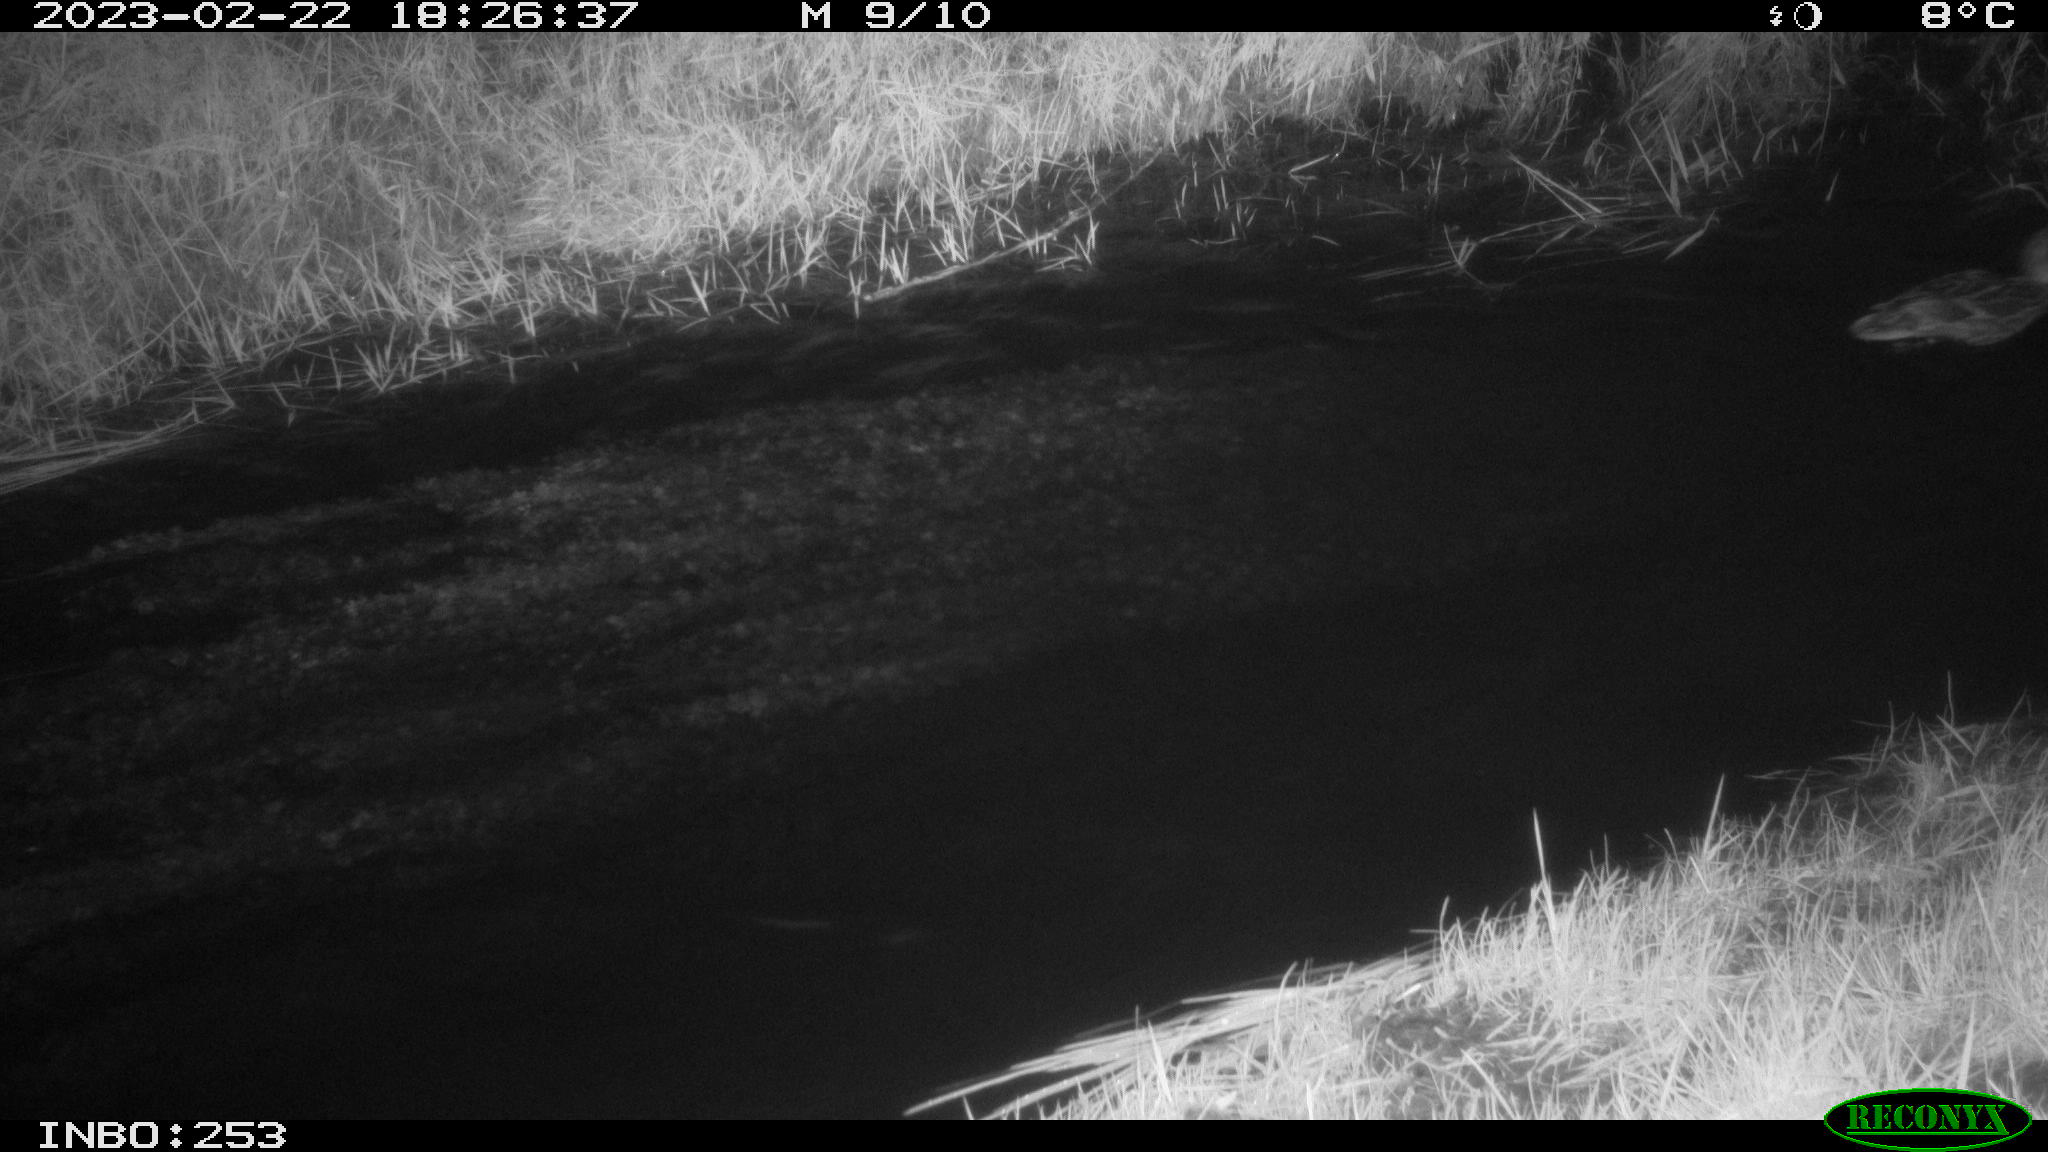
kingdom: Animalia
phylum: Chordata
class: Aves
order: Anseriformes
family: Anatidae
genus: Anas
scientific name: Anas
